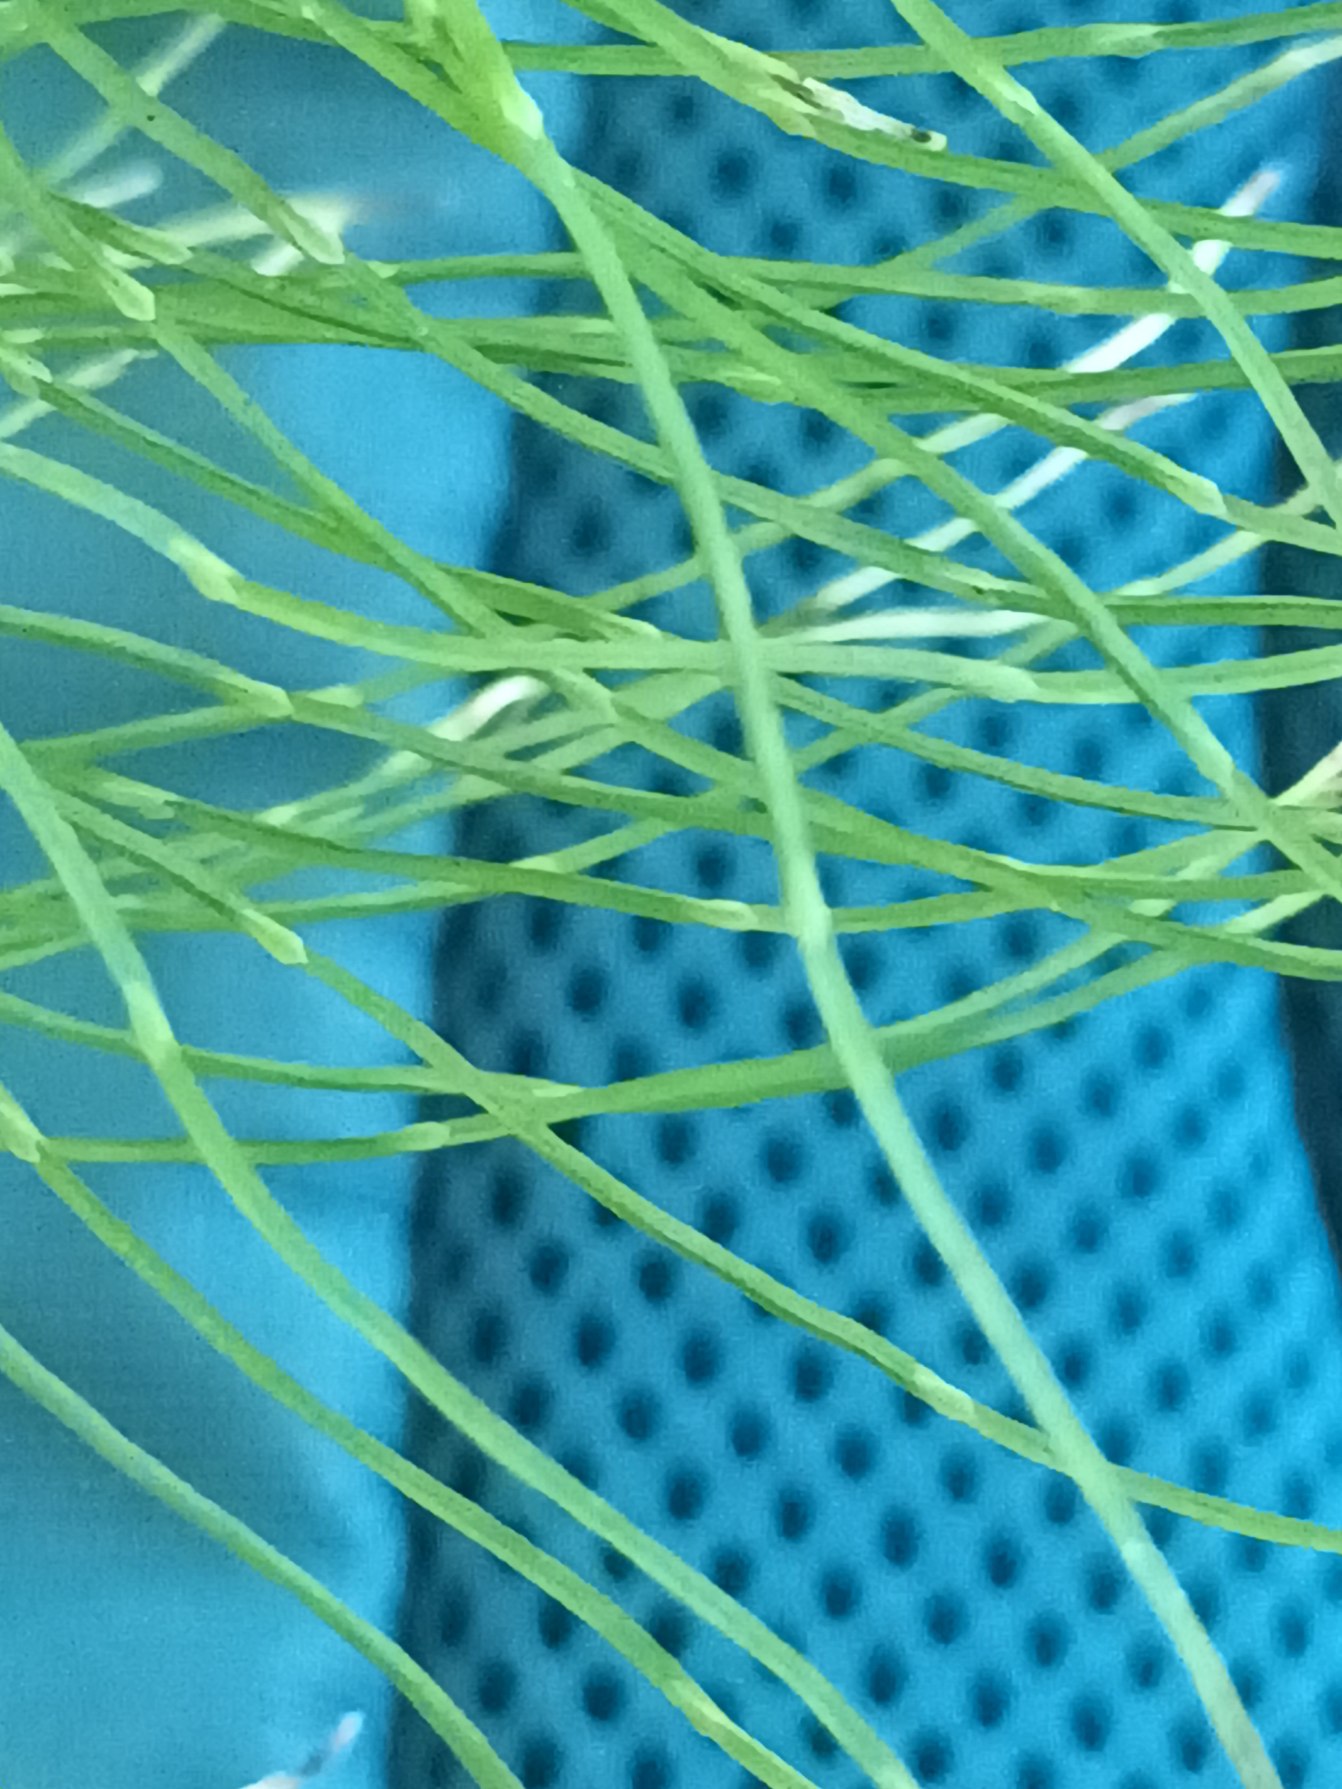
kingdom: Plantae
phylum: Tracheophyta
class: Polypodiopsida
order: Equisetales
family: Equisetaceae
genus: Equisetum
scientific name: Equisetum pratense
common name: Lund-padderok
